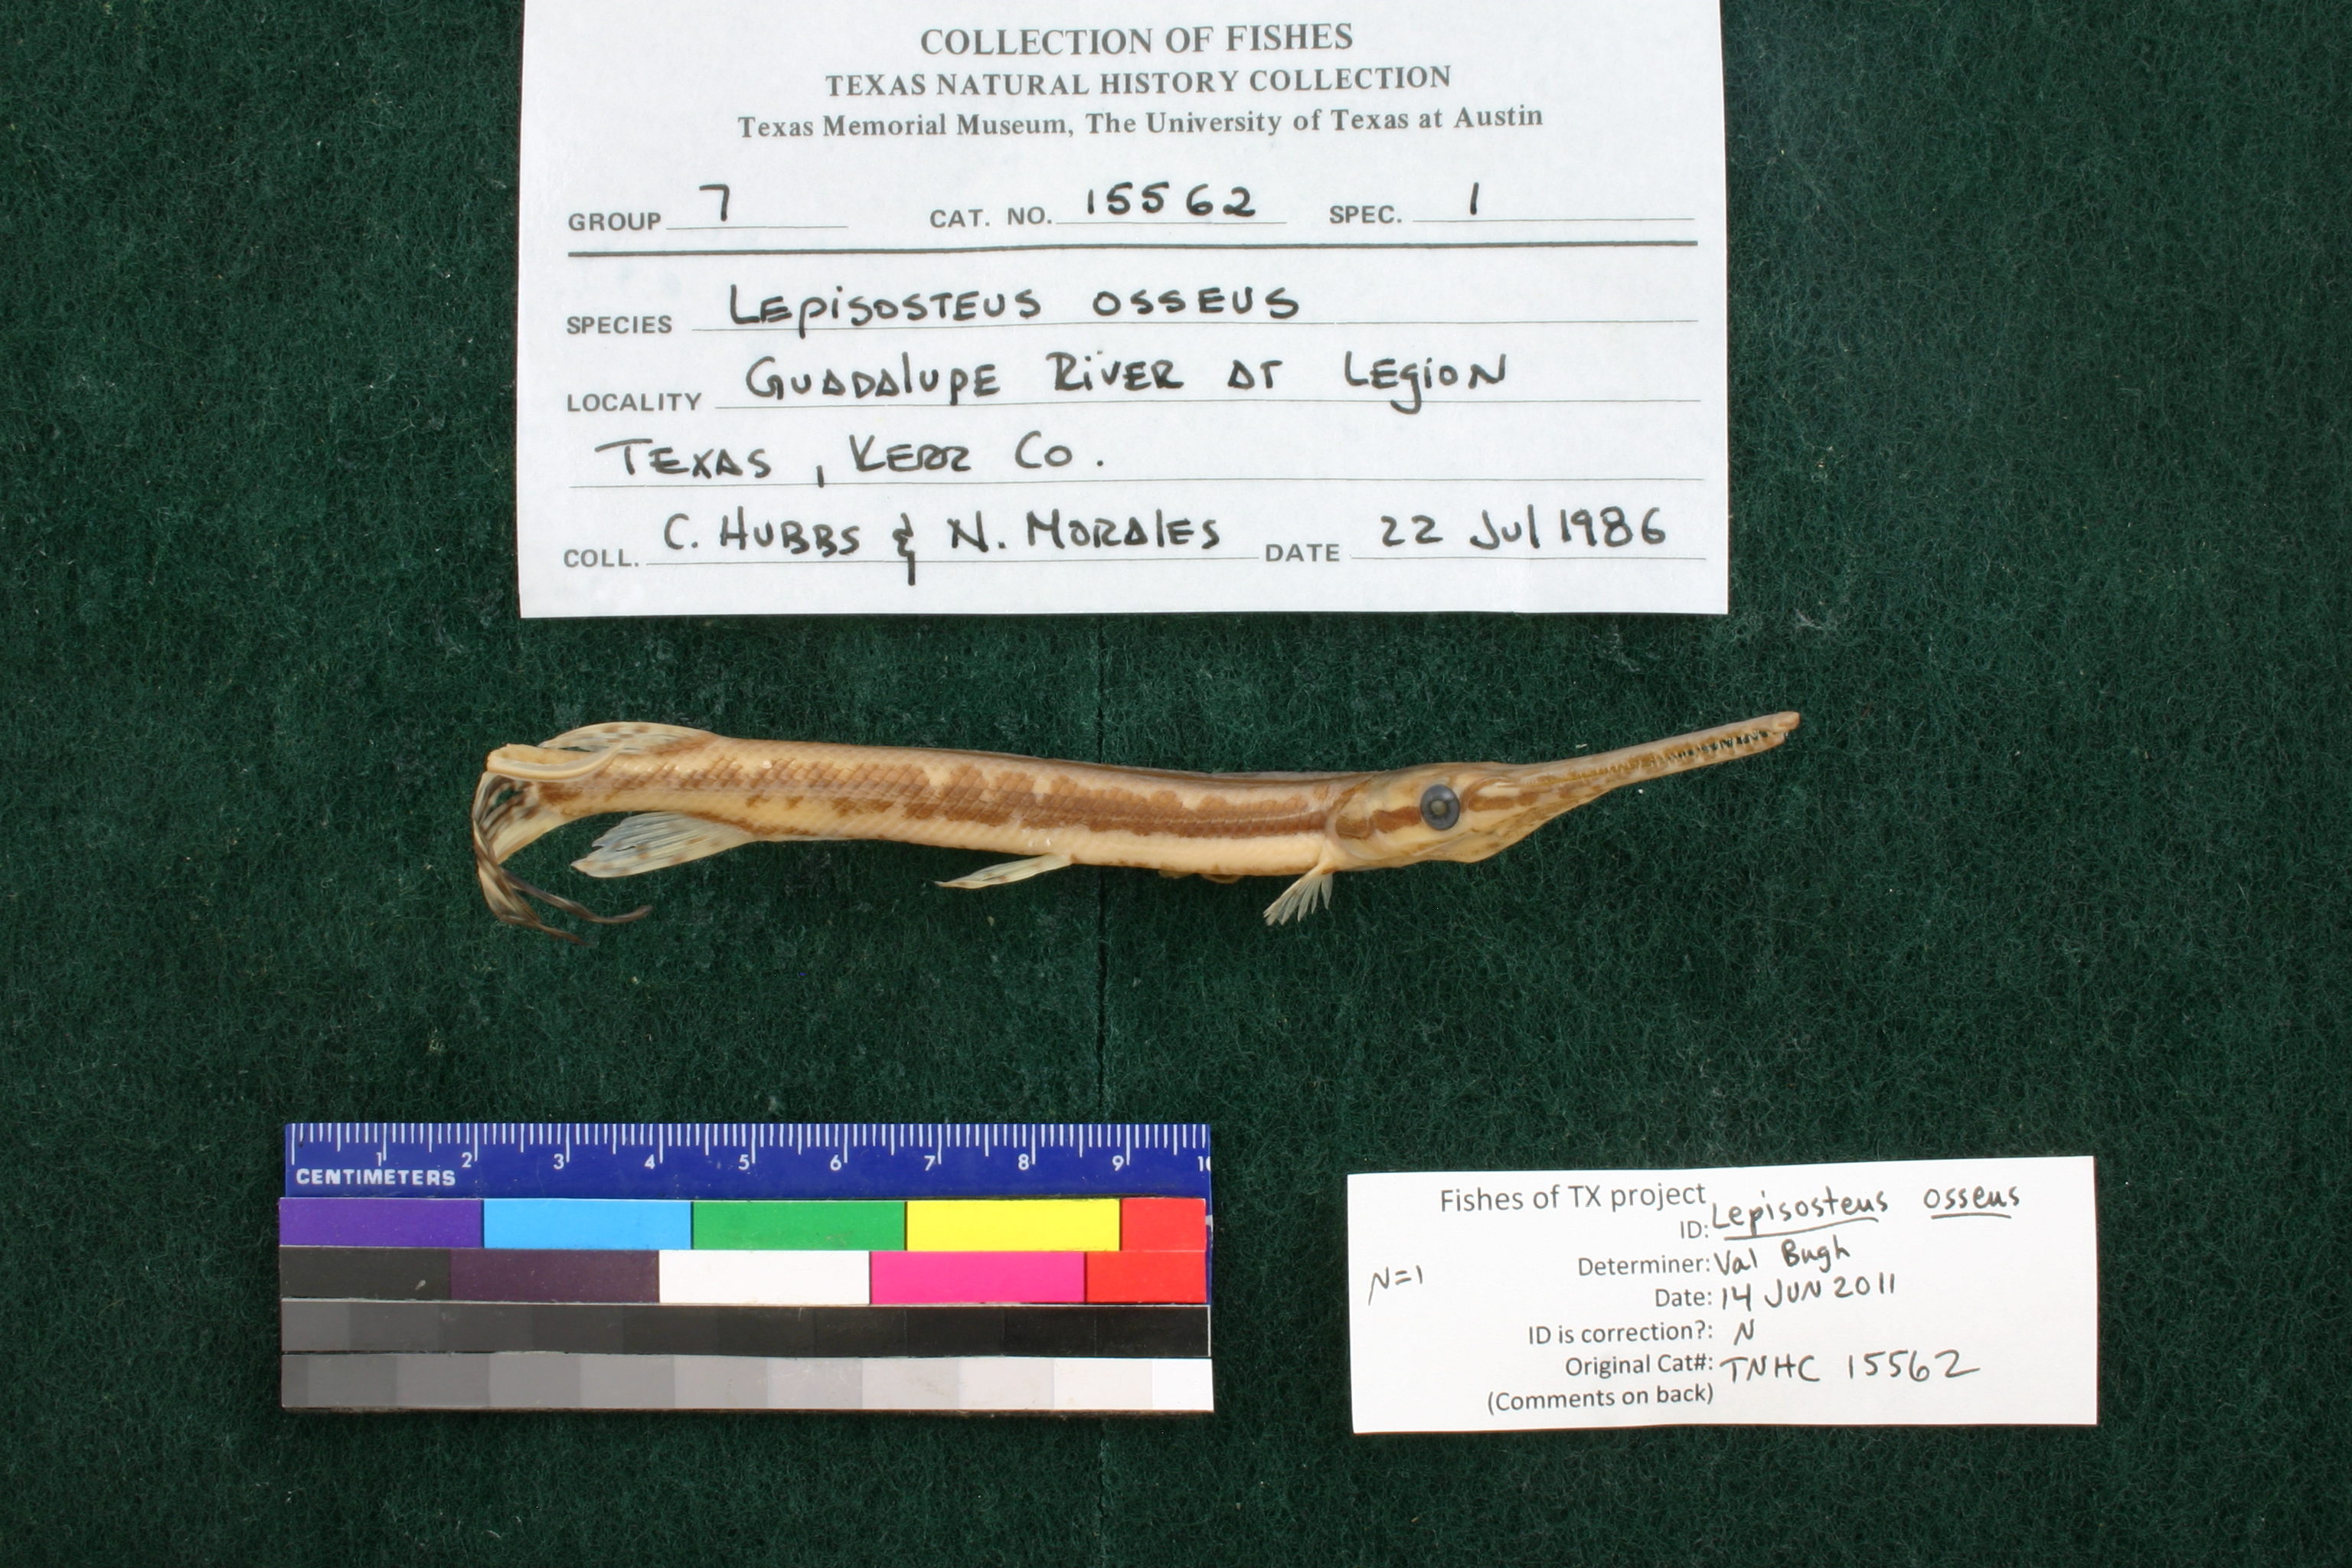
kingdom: Animalia
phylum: Chordata
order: Lepisosteiformes
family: Lepisosteidae
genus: Lepisosteus
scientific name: Lepisosteus osseus
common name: Longnose gar
